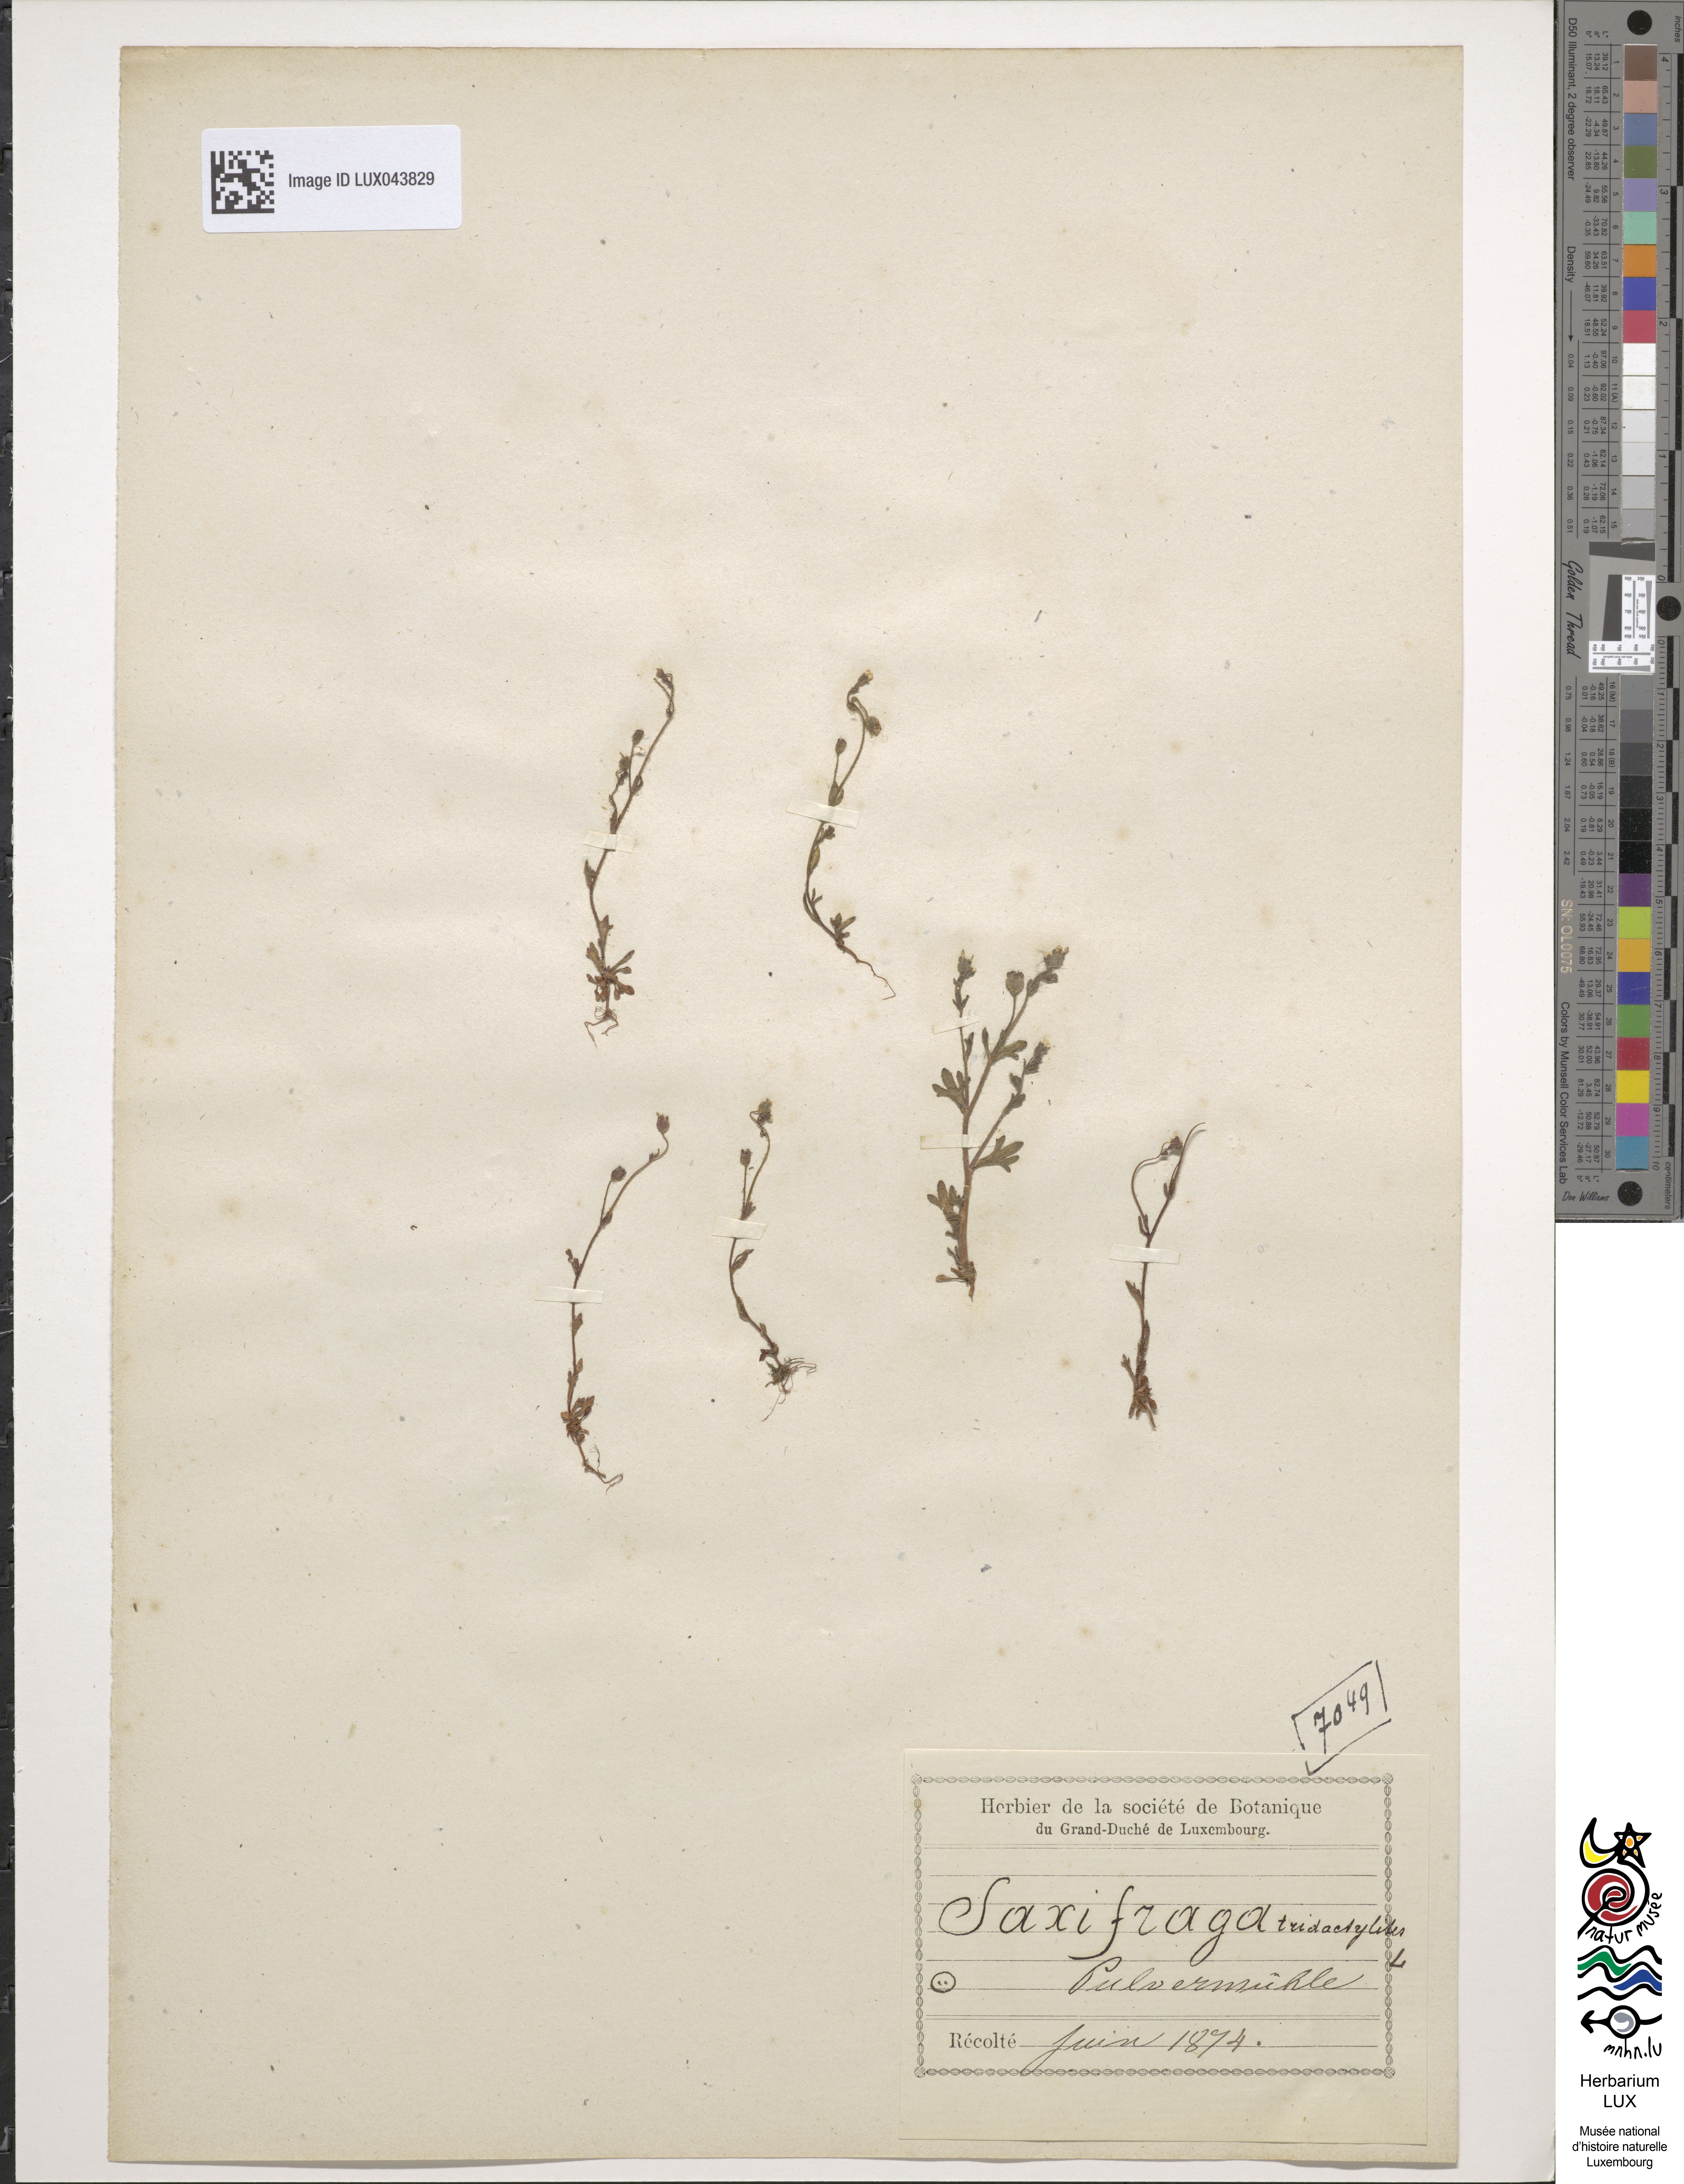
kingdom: Plantae
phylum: Tracheophyta
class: Magnoliopsida
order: Saxifragales
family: Saxifragaceae
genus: Saxifraga
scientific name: Saxifraga tridactylites
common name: Rue-leaved saxifrage
